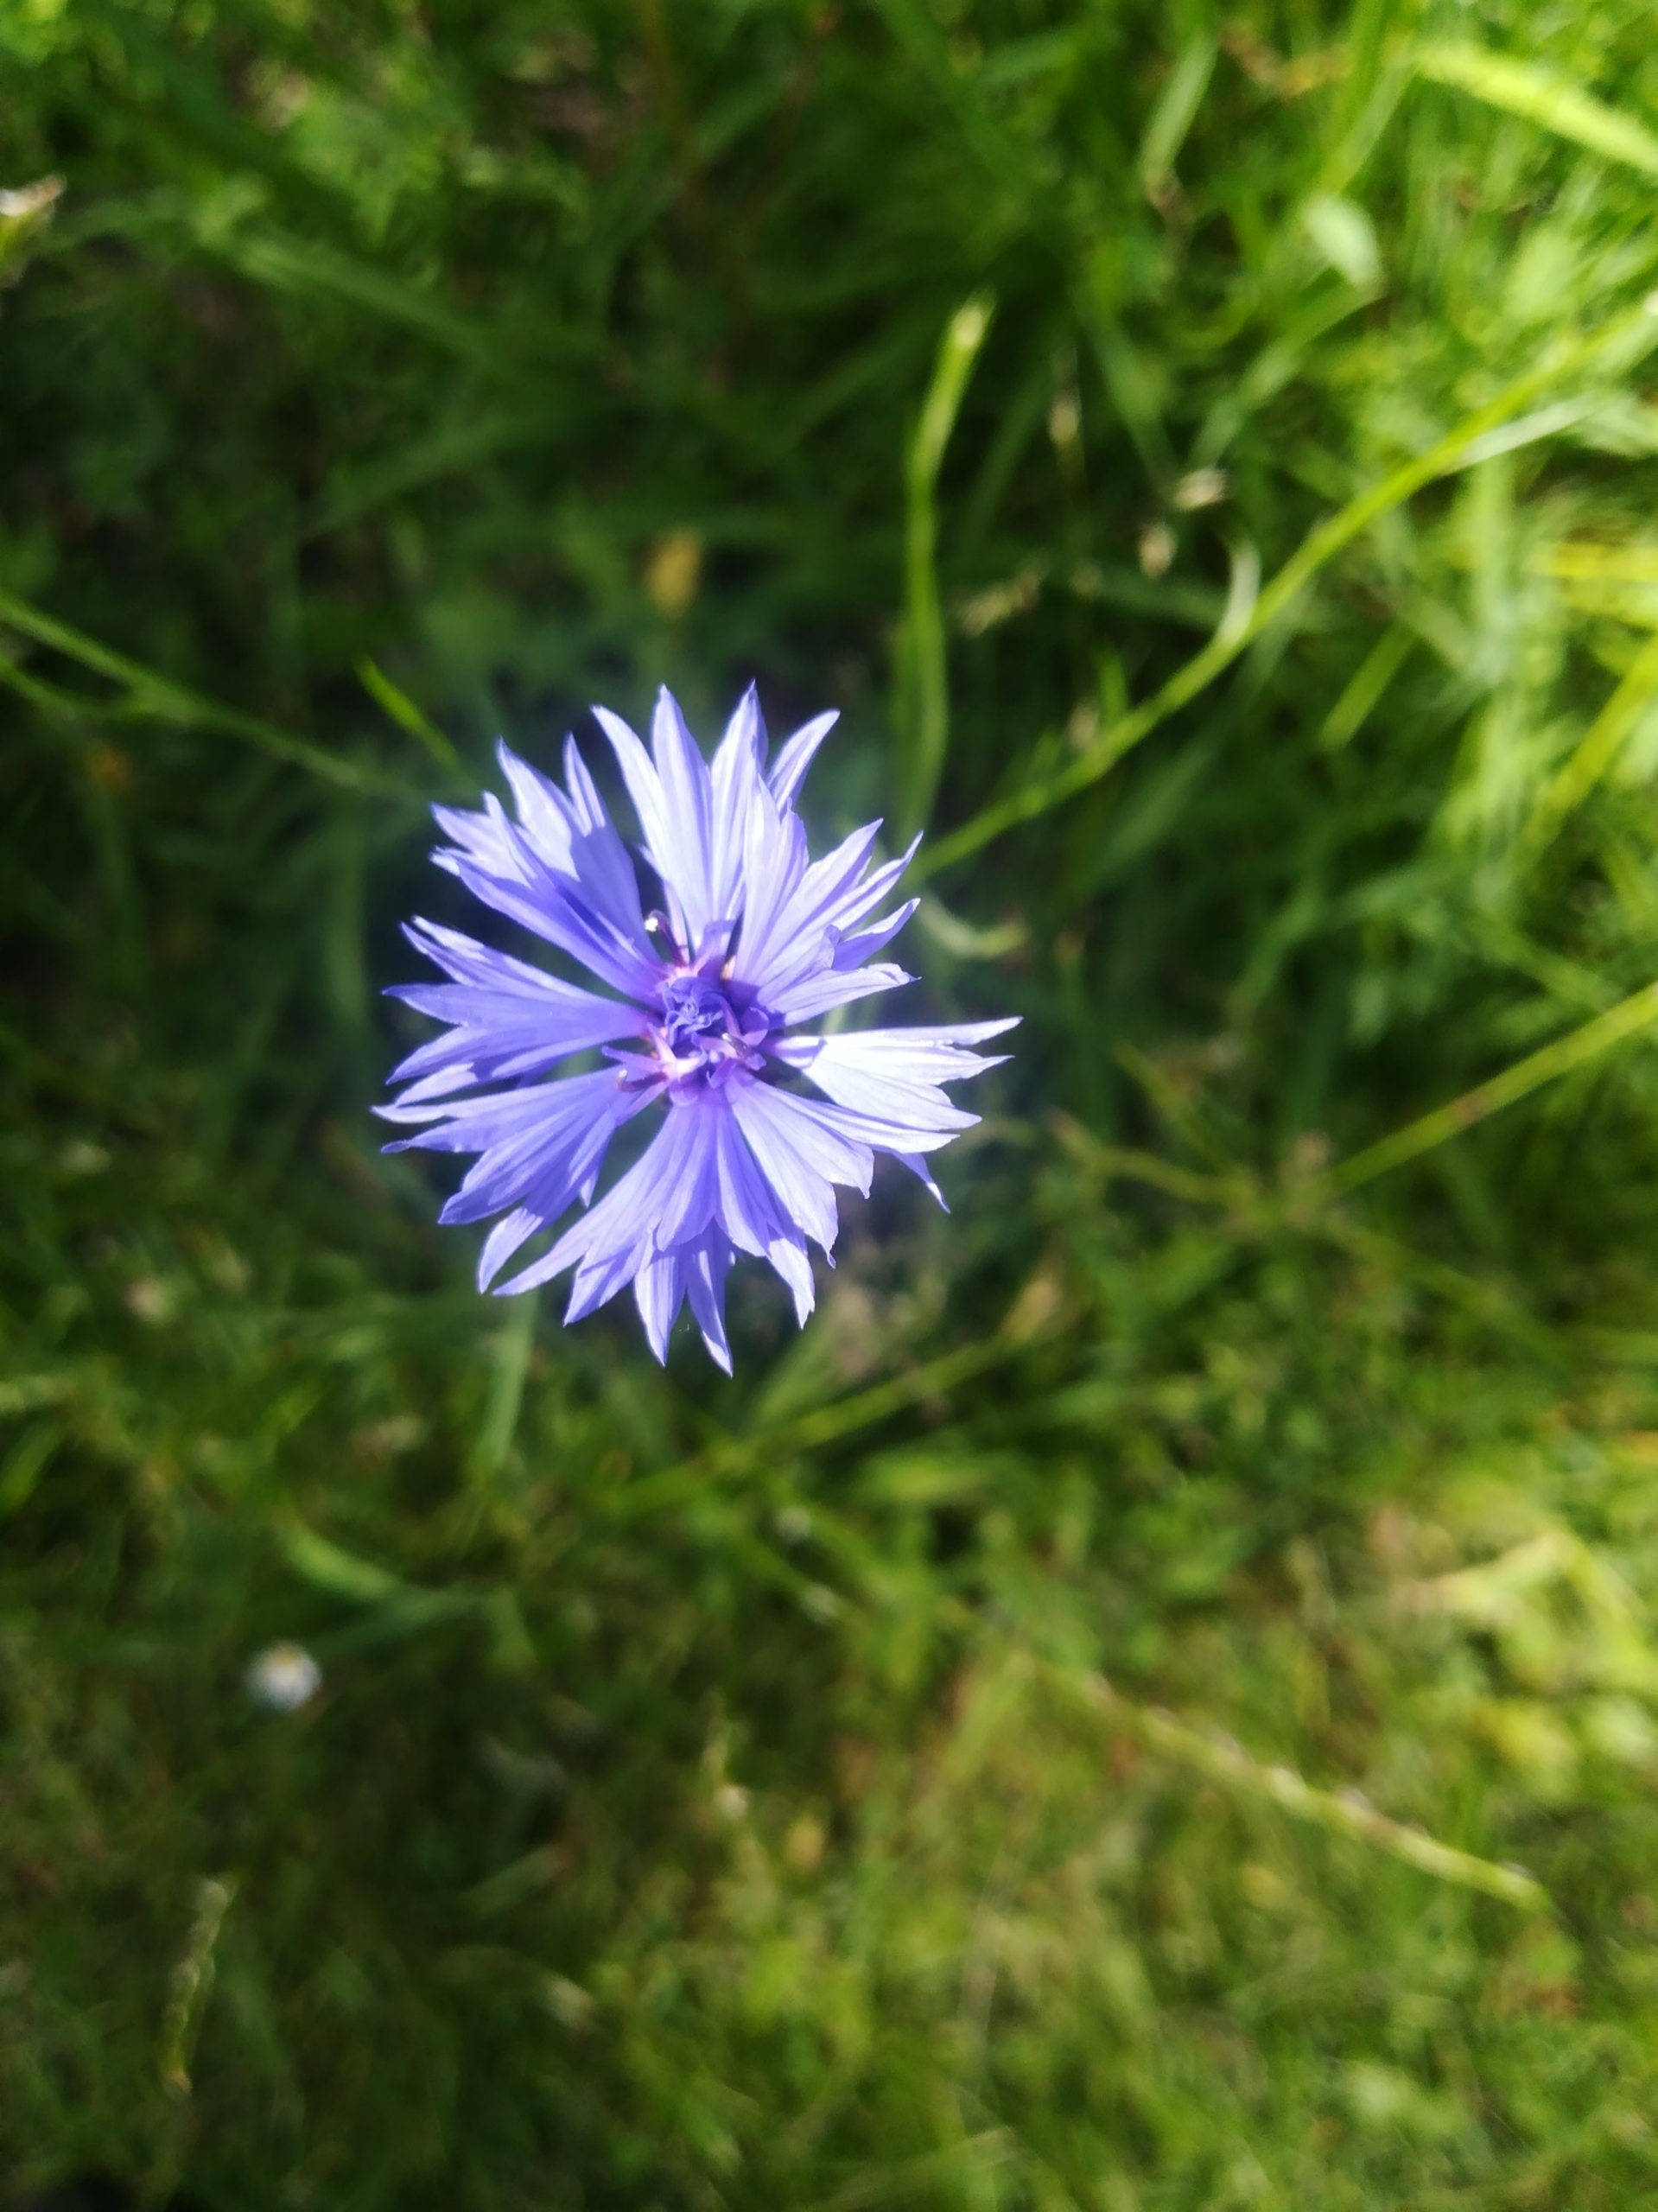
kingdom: Plantae
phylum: Tracheophyta
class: Magnoliopsida
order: Asterales
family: Asteraceae
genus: Centaurea
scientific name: Centaurea cyanus
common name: Kornblomst
